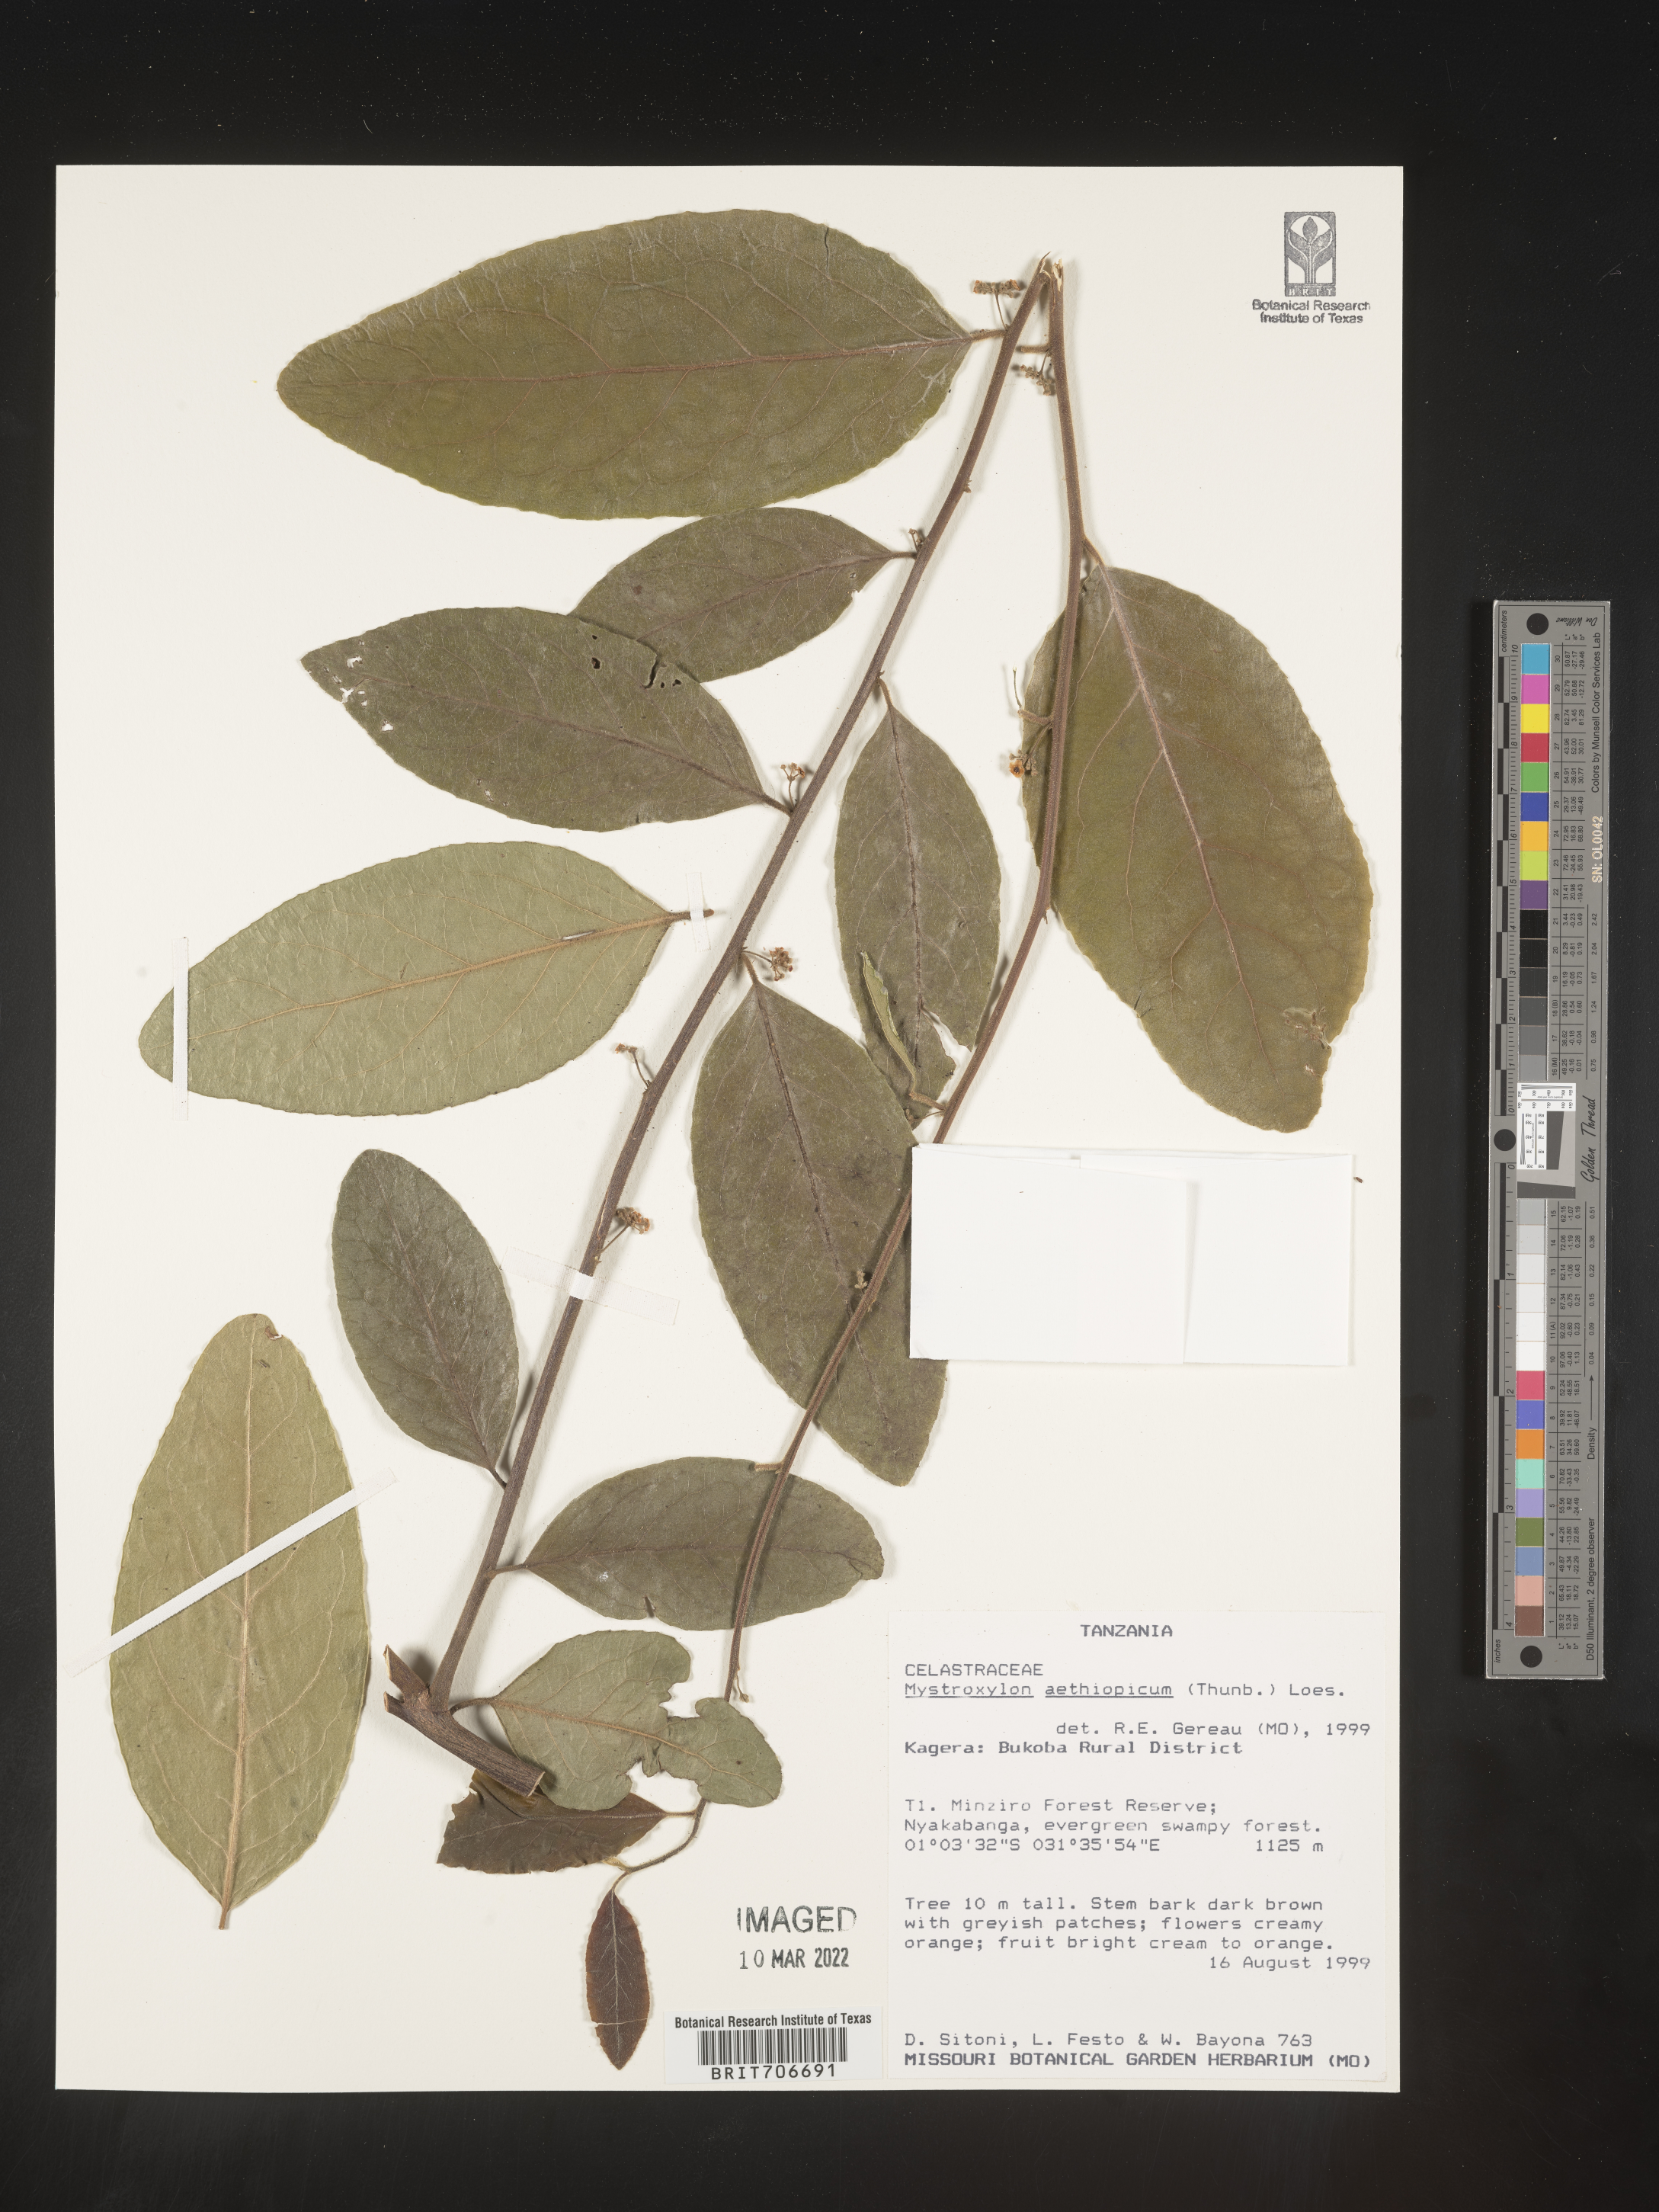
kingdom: Plantae
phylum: Tracheophyta
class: Magnoliopsida
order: Celastrales
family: Celastraceae
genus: Mystroxylon
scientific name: Mystroxylon
